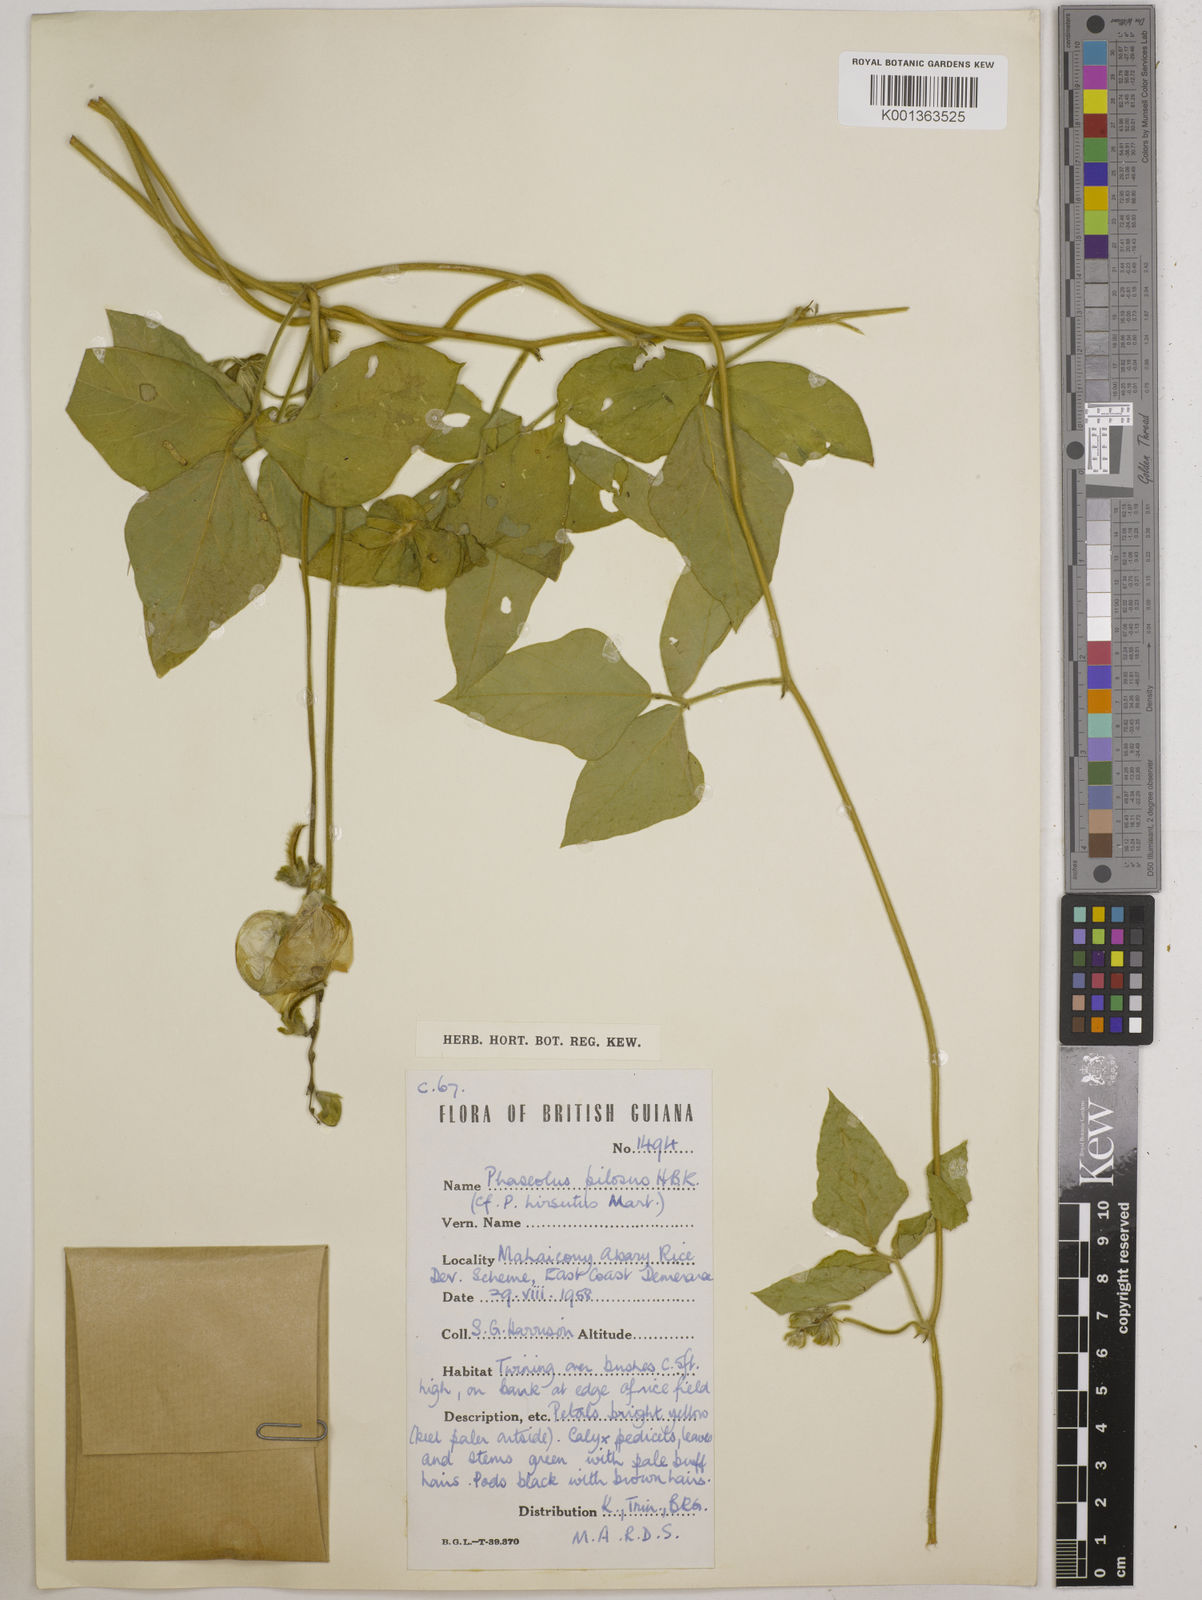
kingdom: Plantae
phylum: Tracheophyta
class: Magnoliopsida
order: Fabales
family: Fabaceae
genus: Vigna
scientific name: Vigna lasiocarpa
